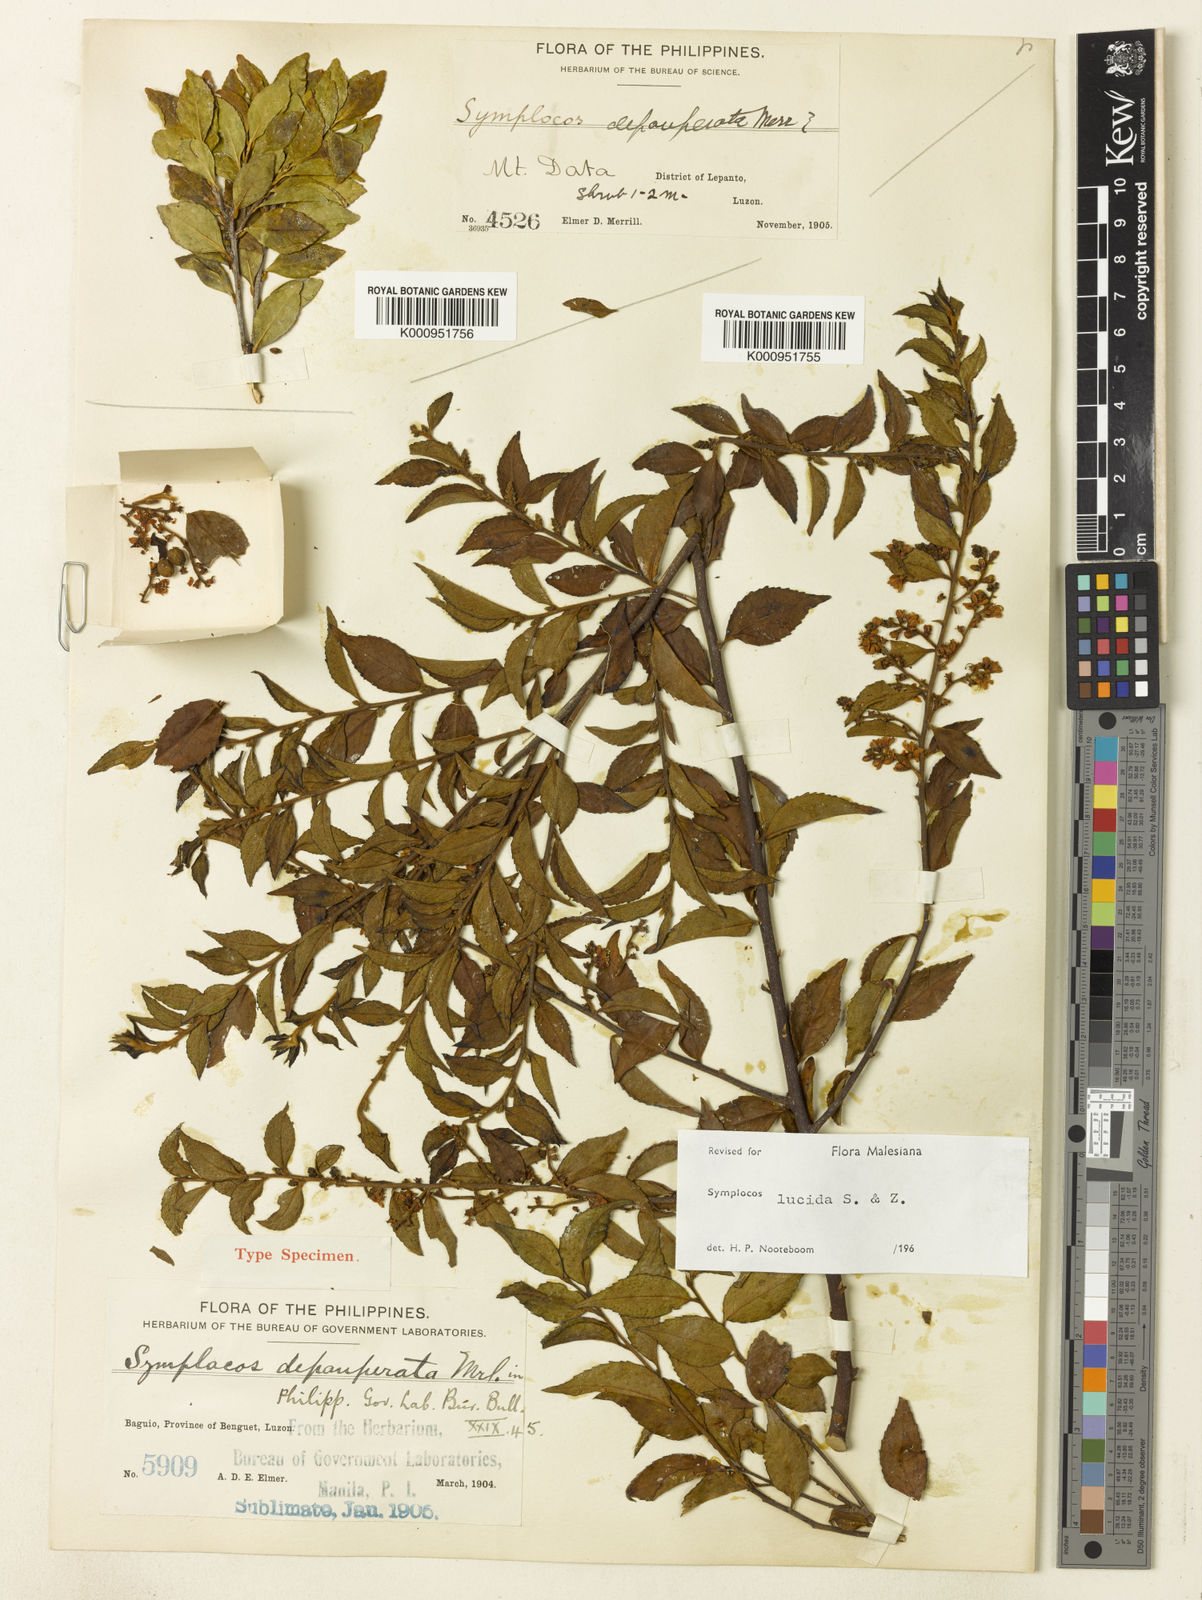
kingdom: Plantae
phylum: Tracheophyta
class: Magnoliopsida
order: Ericales
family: Symplocaceae
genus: Symplocos
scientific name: Symplocos lancifolia
